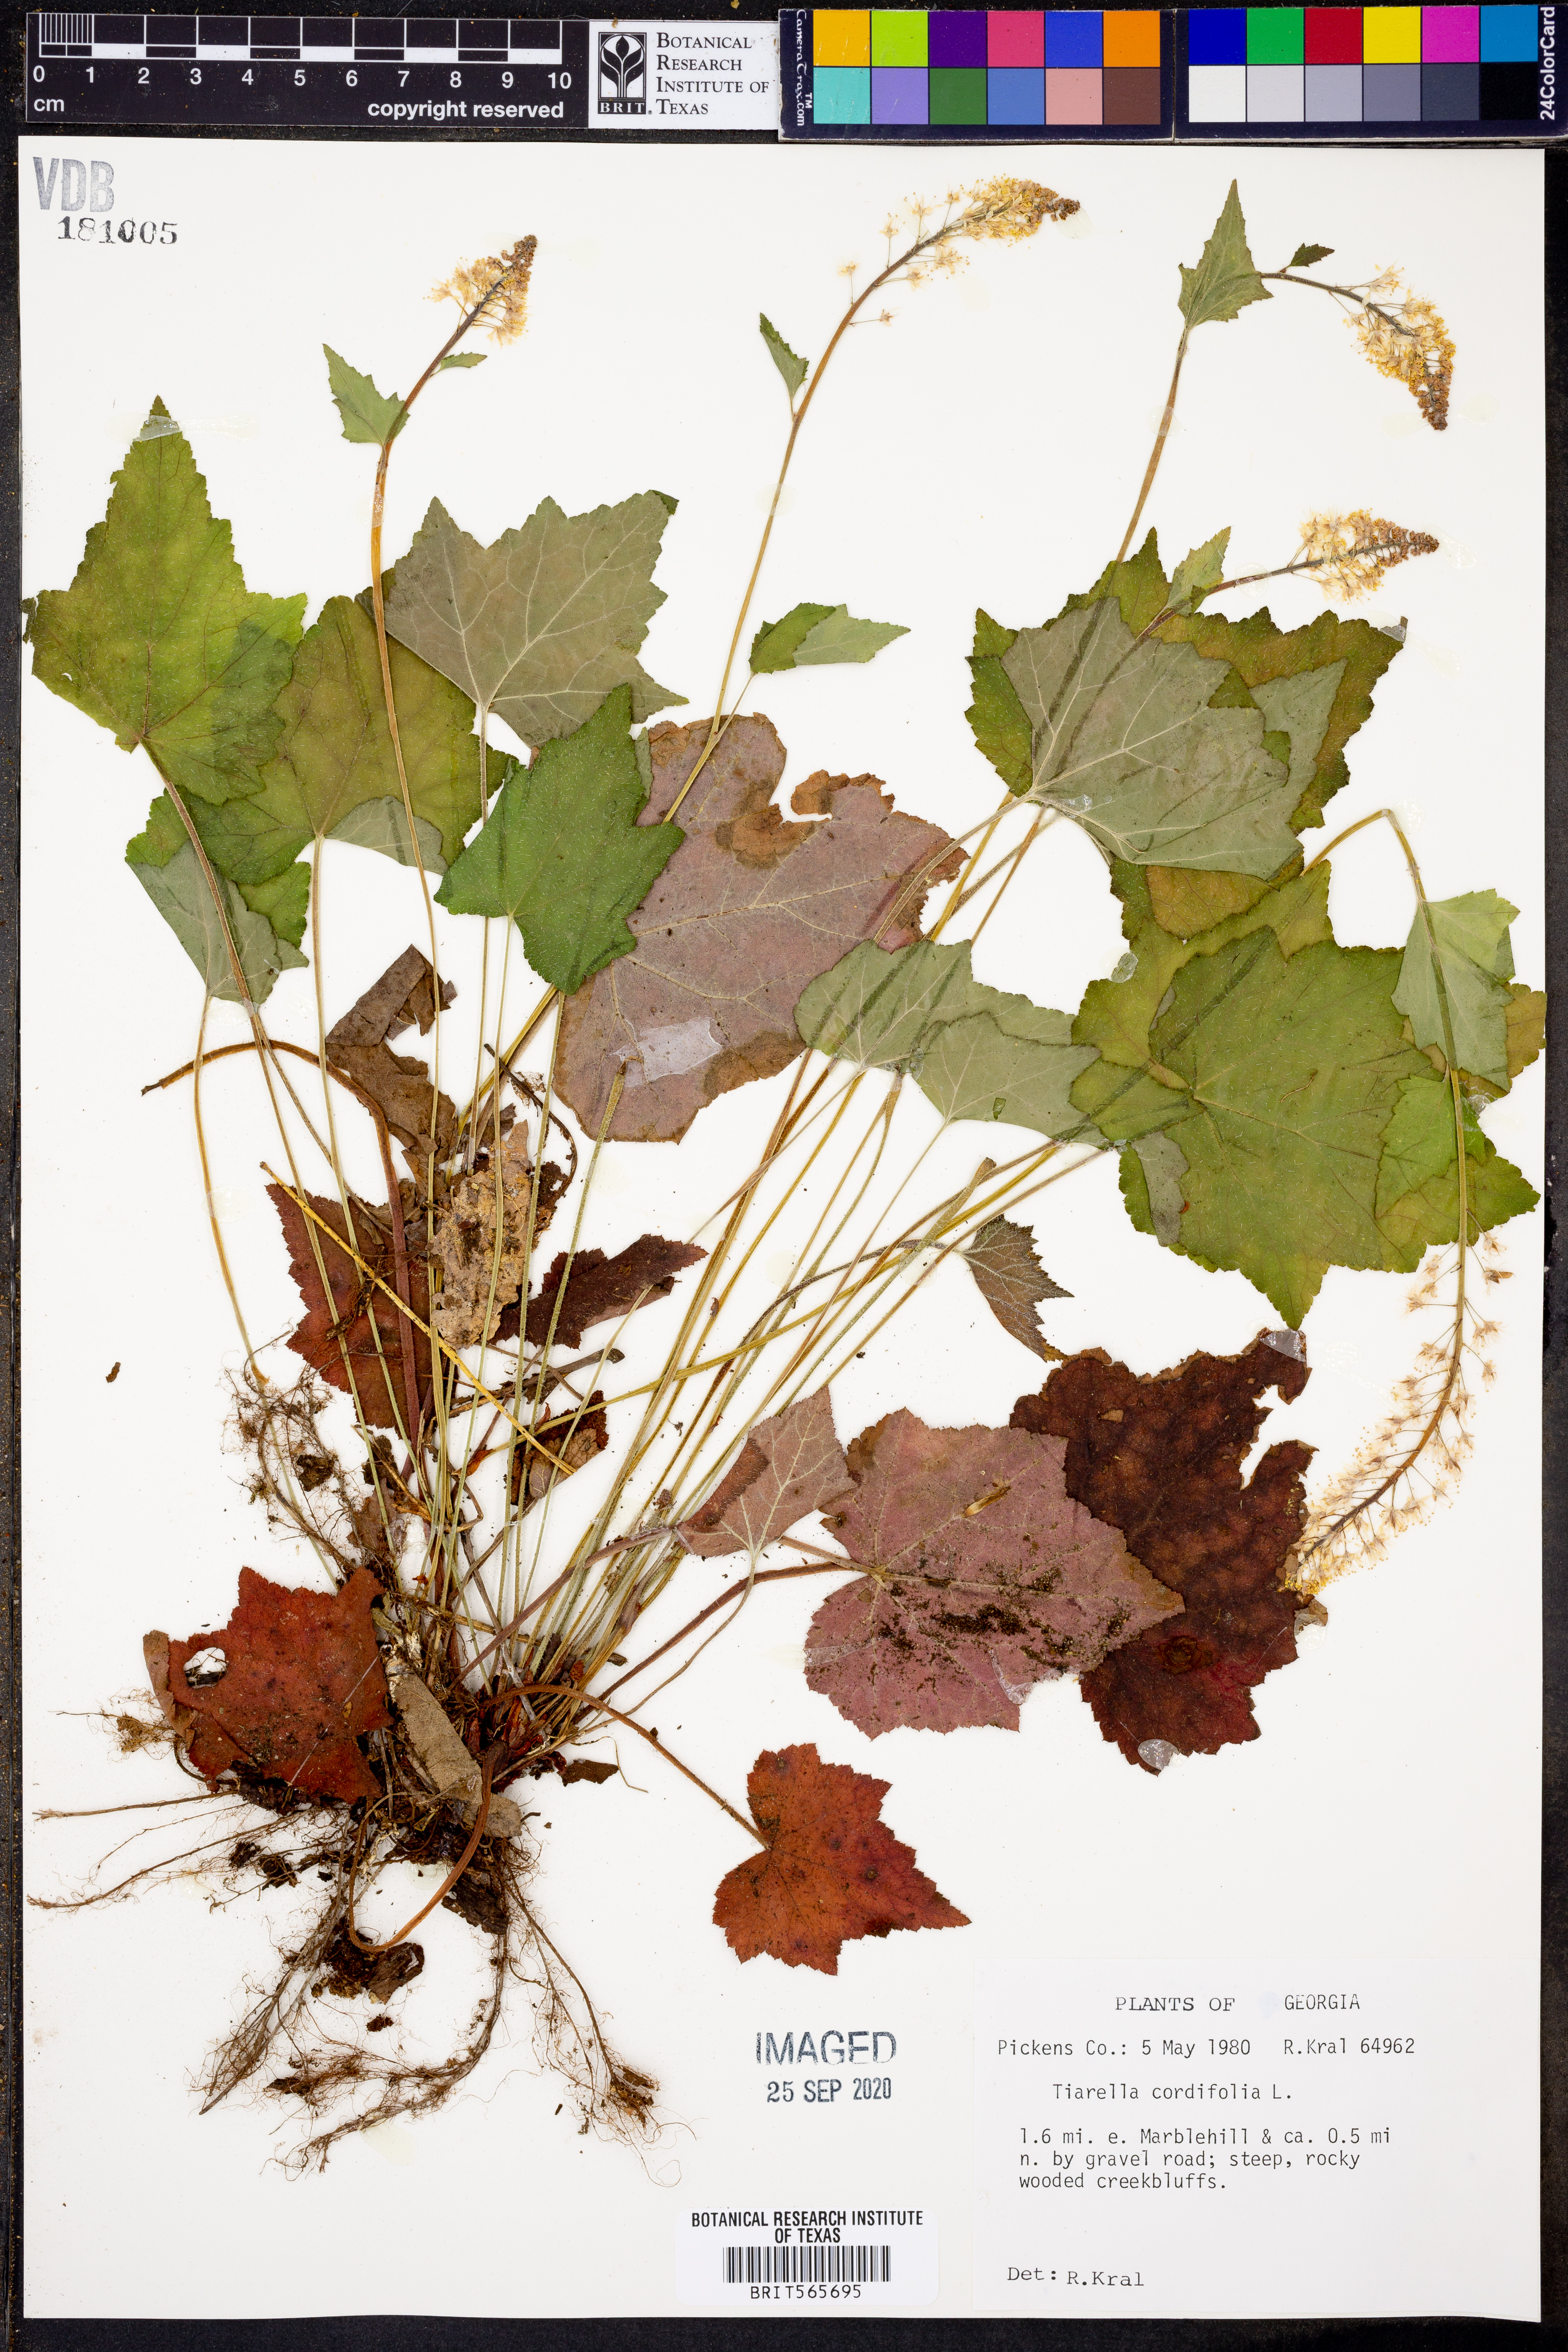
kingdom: Plantae
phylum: Tracheophyta
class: Magnoliopsida
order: Saxifragales
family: Saxifragaceae
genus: Tiarella
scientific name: Tiarella cordifolia
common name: Foamflower
